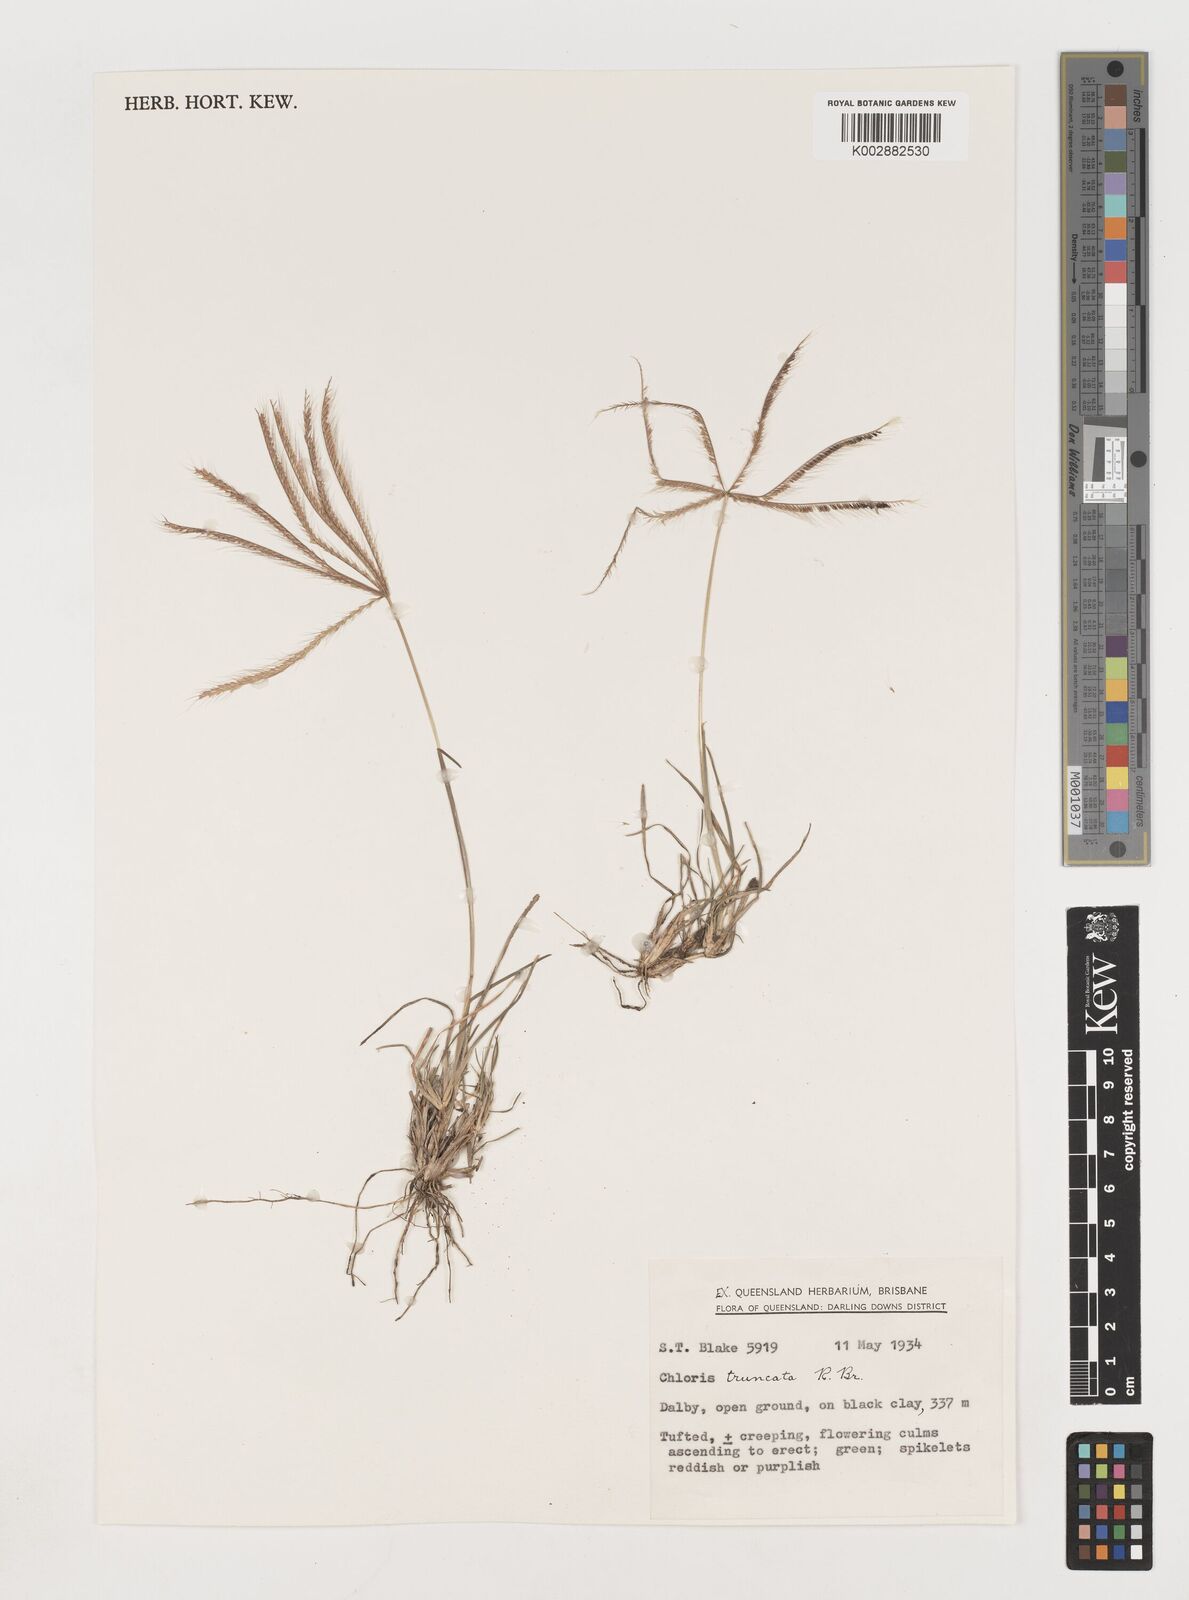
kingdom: Plantae
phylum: Tracheophyta
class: Liliopsida
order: Poales
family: Poaceae
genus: Chloris
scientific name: Chloris truncata
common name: Windmill-grass
